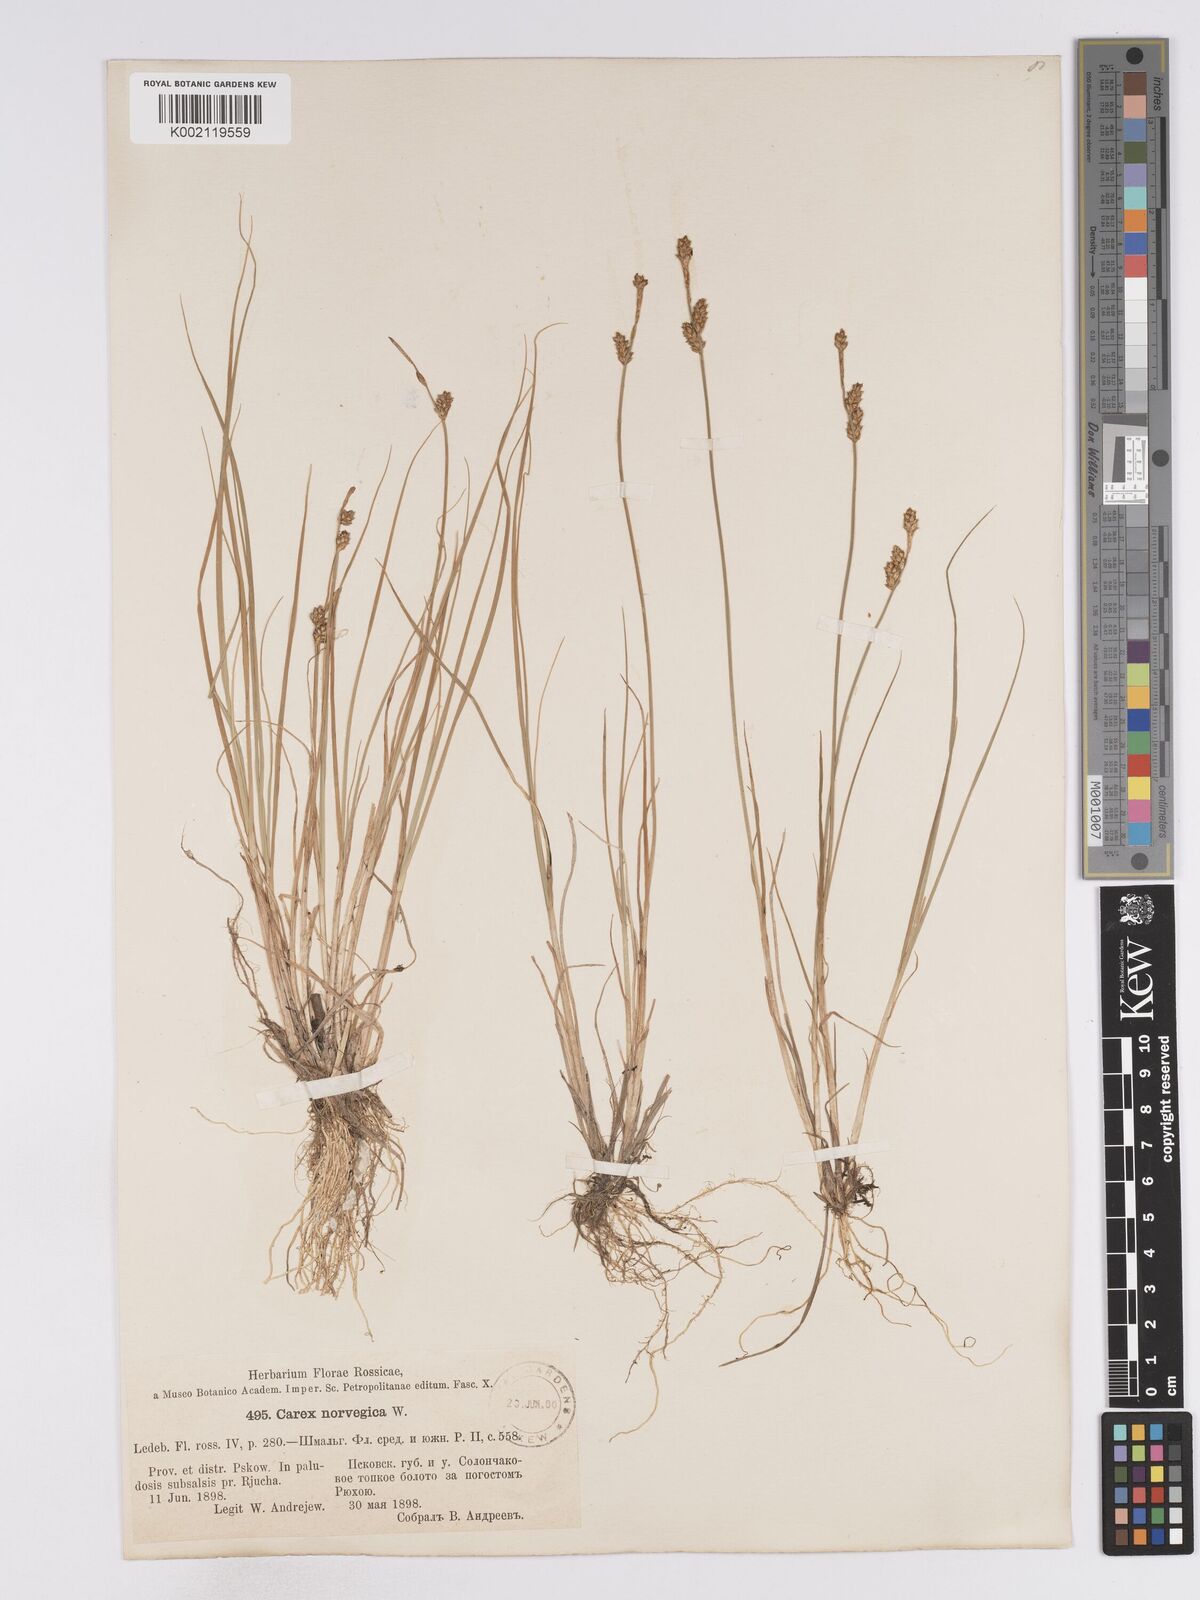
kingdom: Plantae
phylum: Tracheophyta
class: Liliopsida
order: Poales
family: Cyperaceae
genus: Carex
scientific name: Carex mackenziei
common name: Mackenzie's sedge
